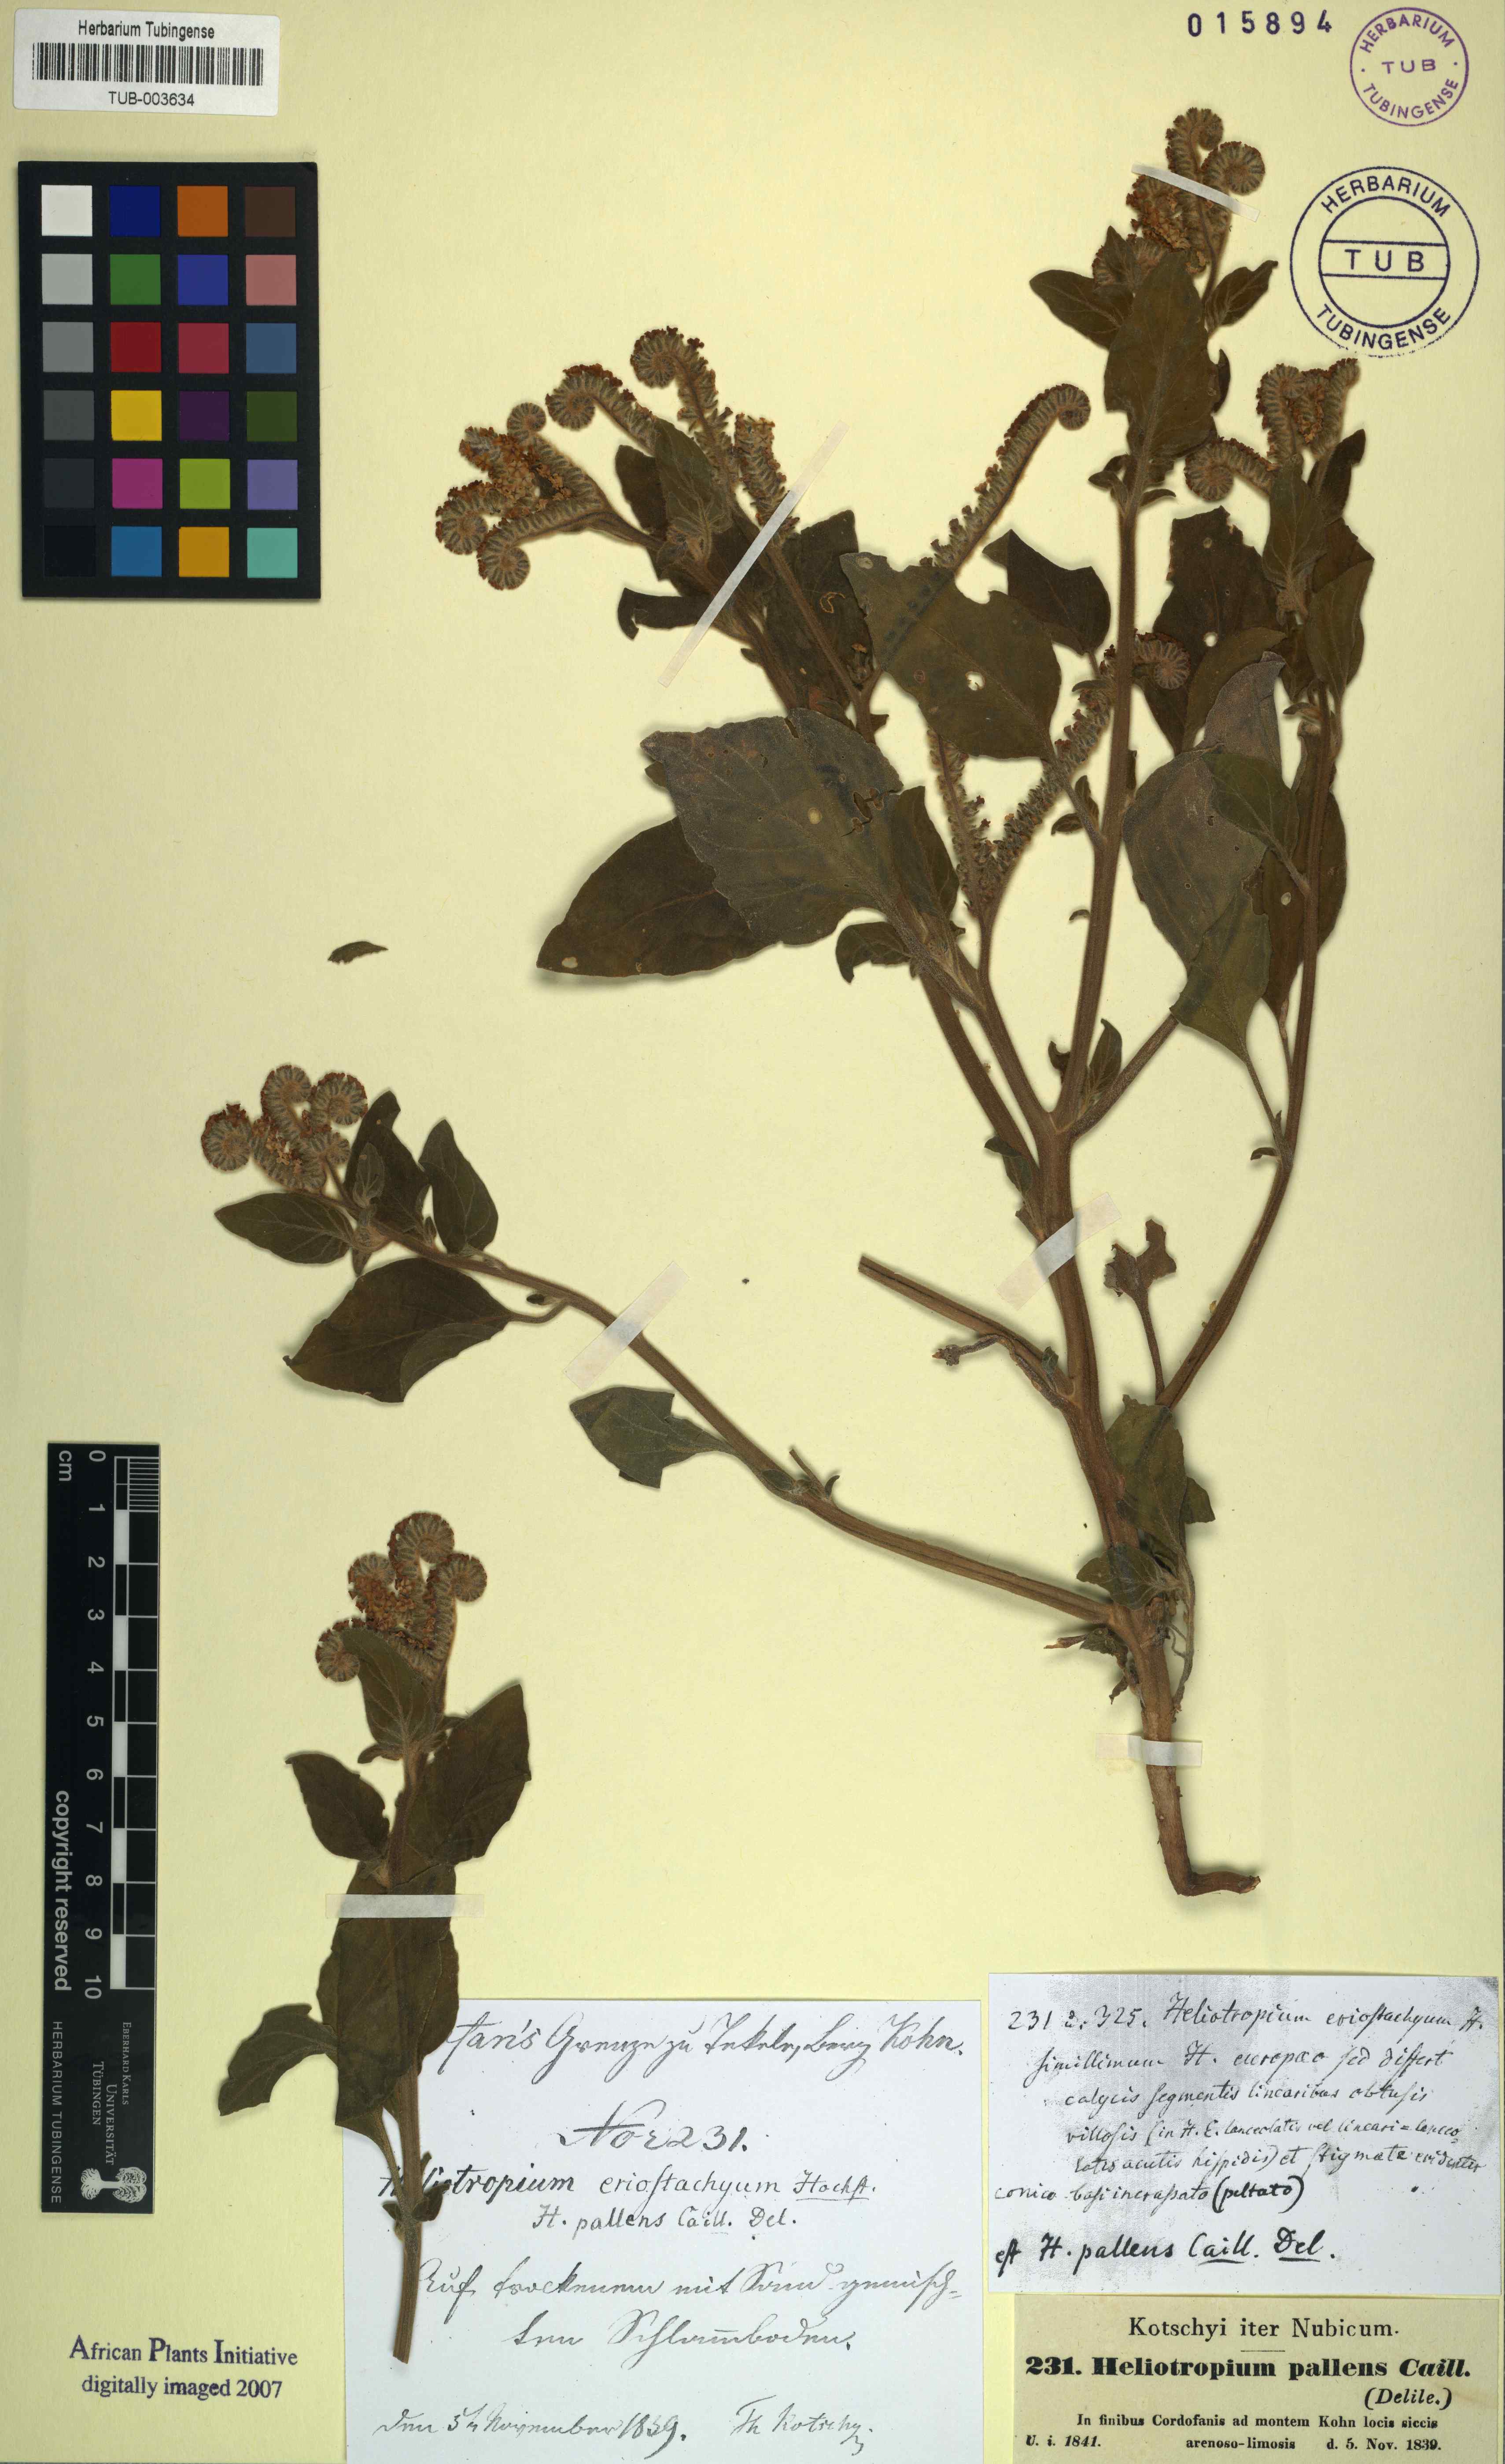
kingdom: Plantae
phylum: Tracheophyta
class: Magnoliopsida
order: Boraginales
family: Heliotropiaceae
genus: Heliotropium
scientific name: Heliotropium aegyptiacum
